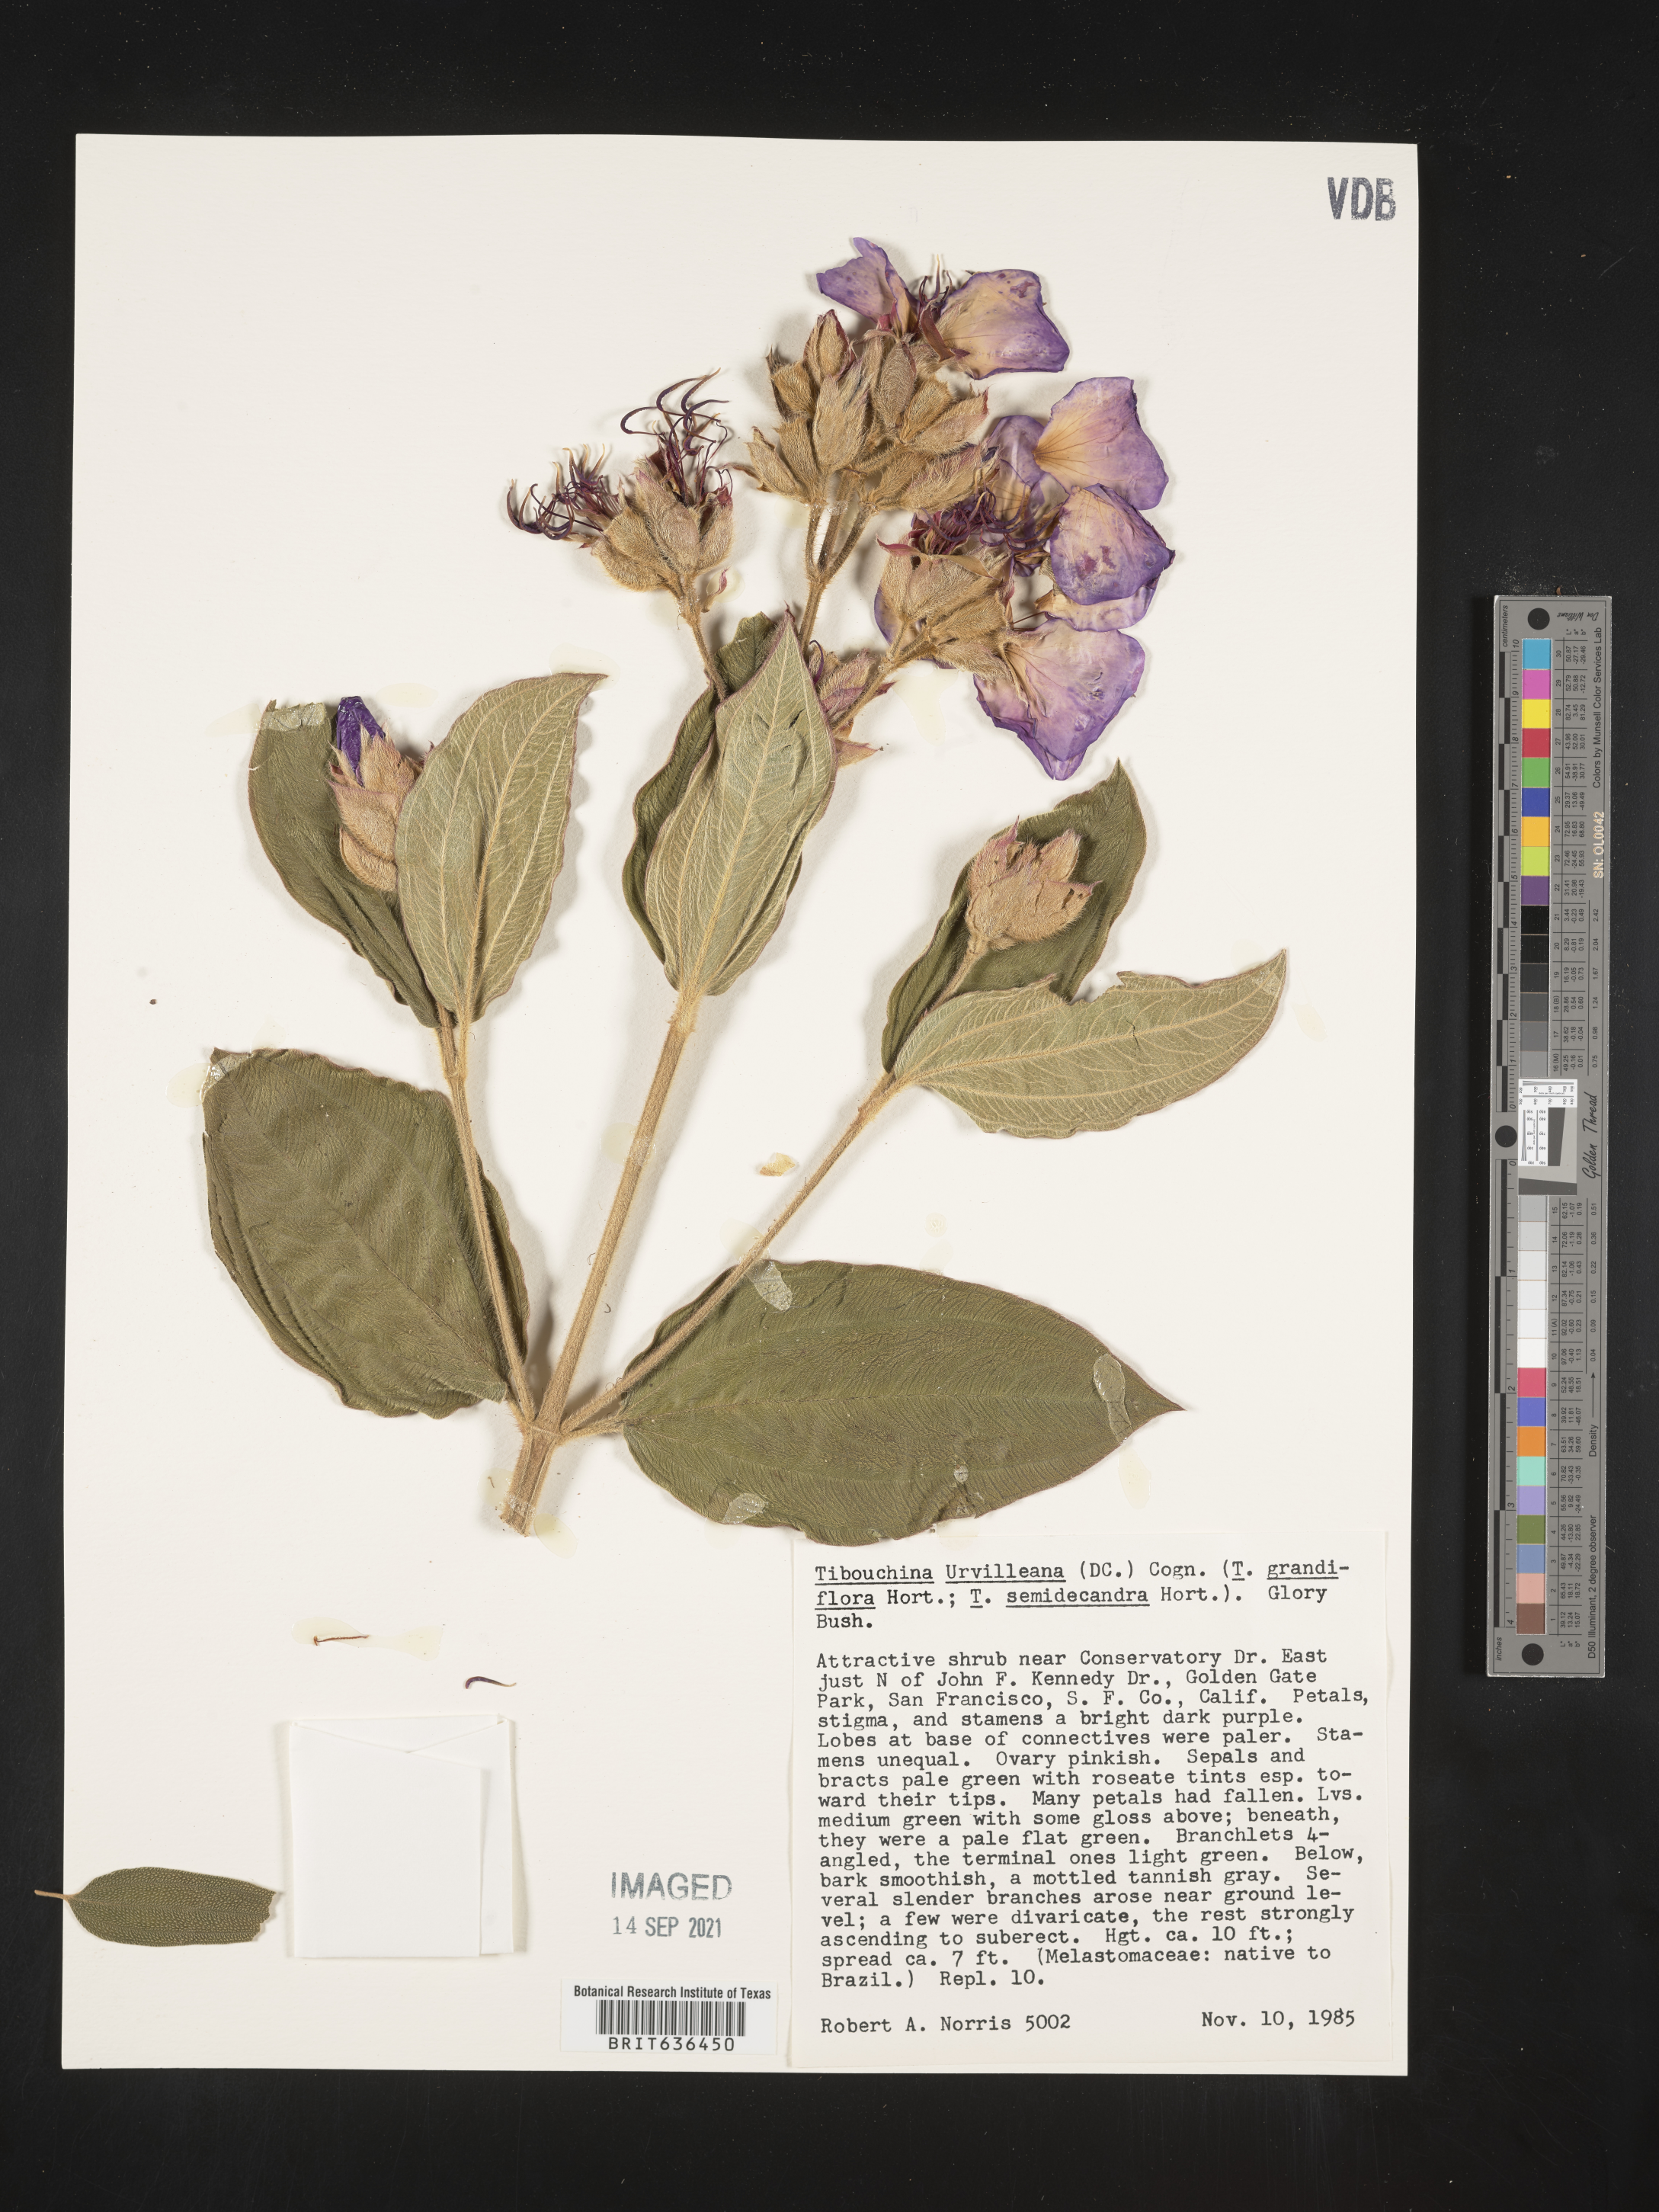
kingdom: Plantae
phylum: Tracheophyta
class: Magnoliopsida
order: Myrtales
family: Melastomataceae
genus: Tibouchina
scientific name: Tibouchina
